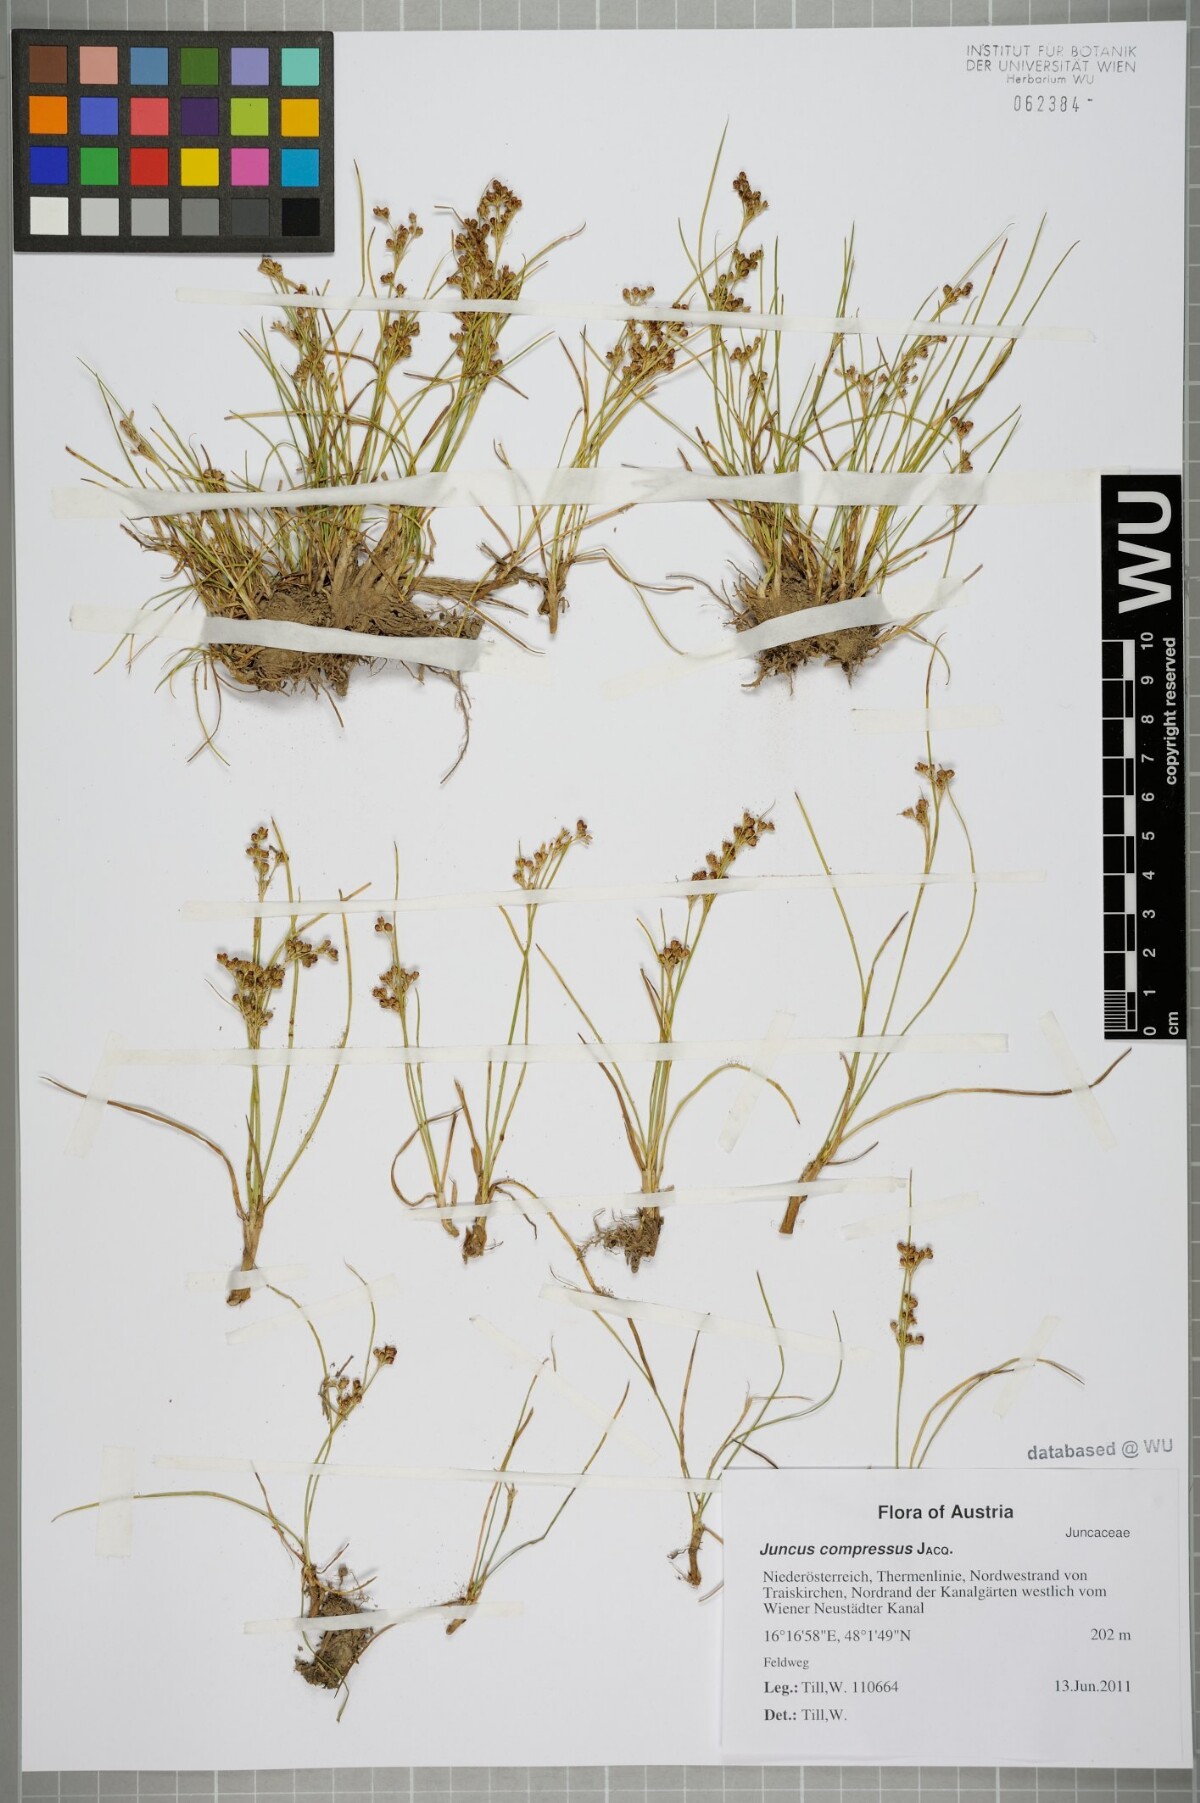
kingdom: Plantae
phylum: Tracheophyta
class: Liliopsida
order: Poales
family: Juncaceae
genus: Juncus
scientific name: Juncus compressus
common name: Round-fruited rush
